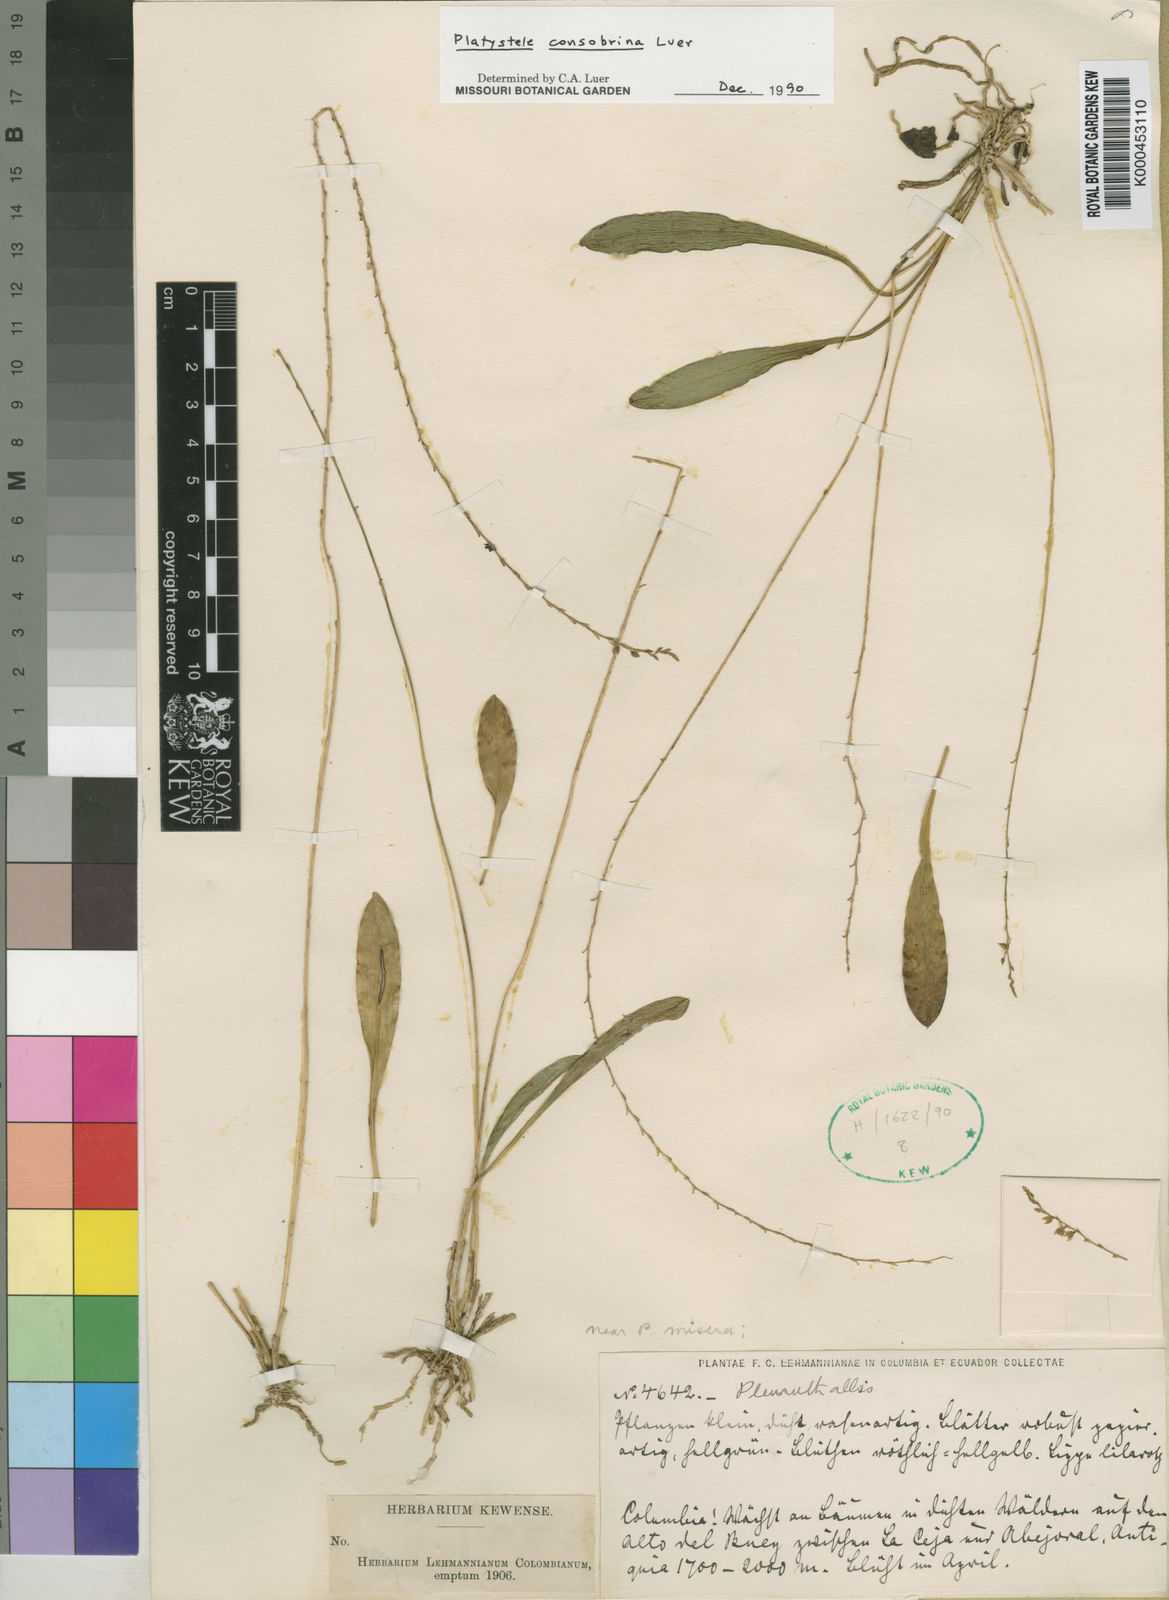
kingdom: Plantae
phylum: Tracheophyta
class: Liliopsida
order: Asparagales
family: Orchidaceae
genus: Platystele
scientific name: Platystele consobrina
